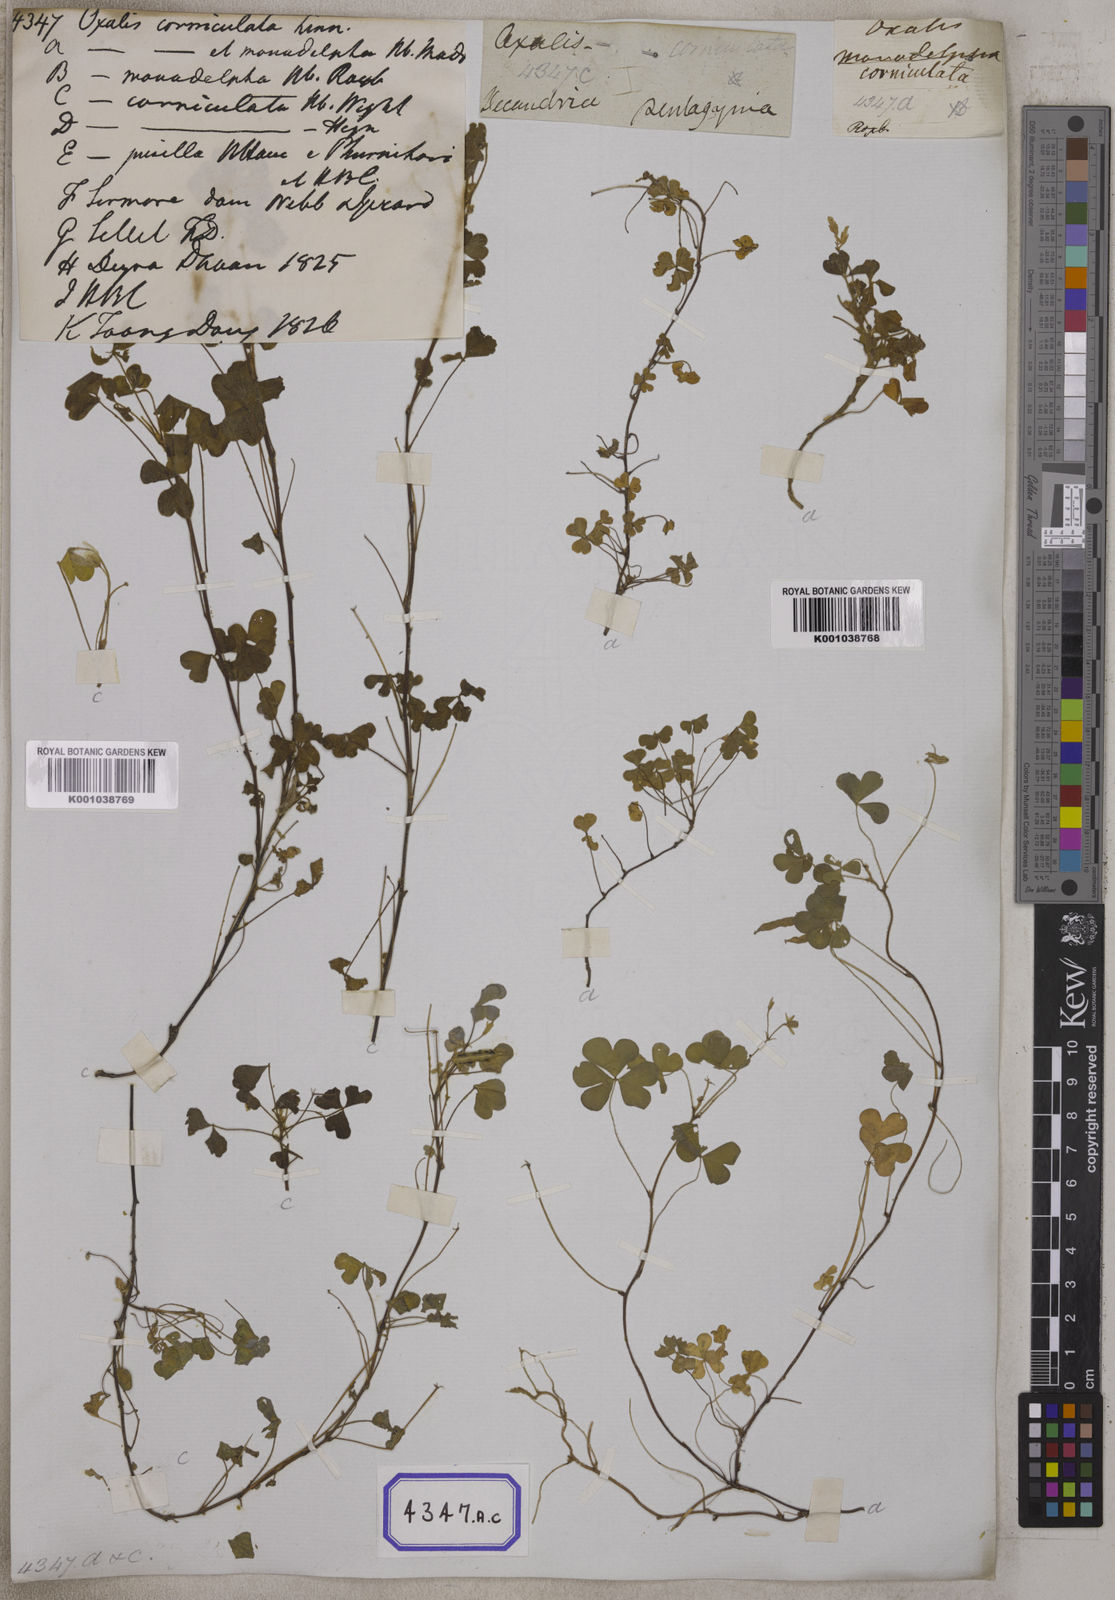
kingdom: Plantae
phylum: Tracheophyta
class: Magnoliopsida
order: Oxalidales
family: Oxalidaceae
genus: Oxalis
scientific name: Oxalis corniculata
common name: Procumbent yellow-sorrel
